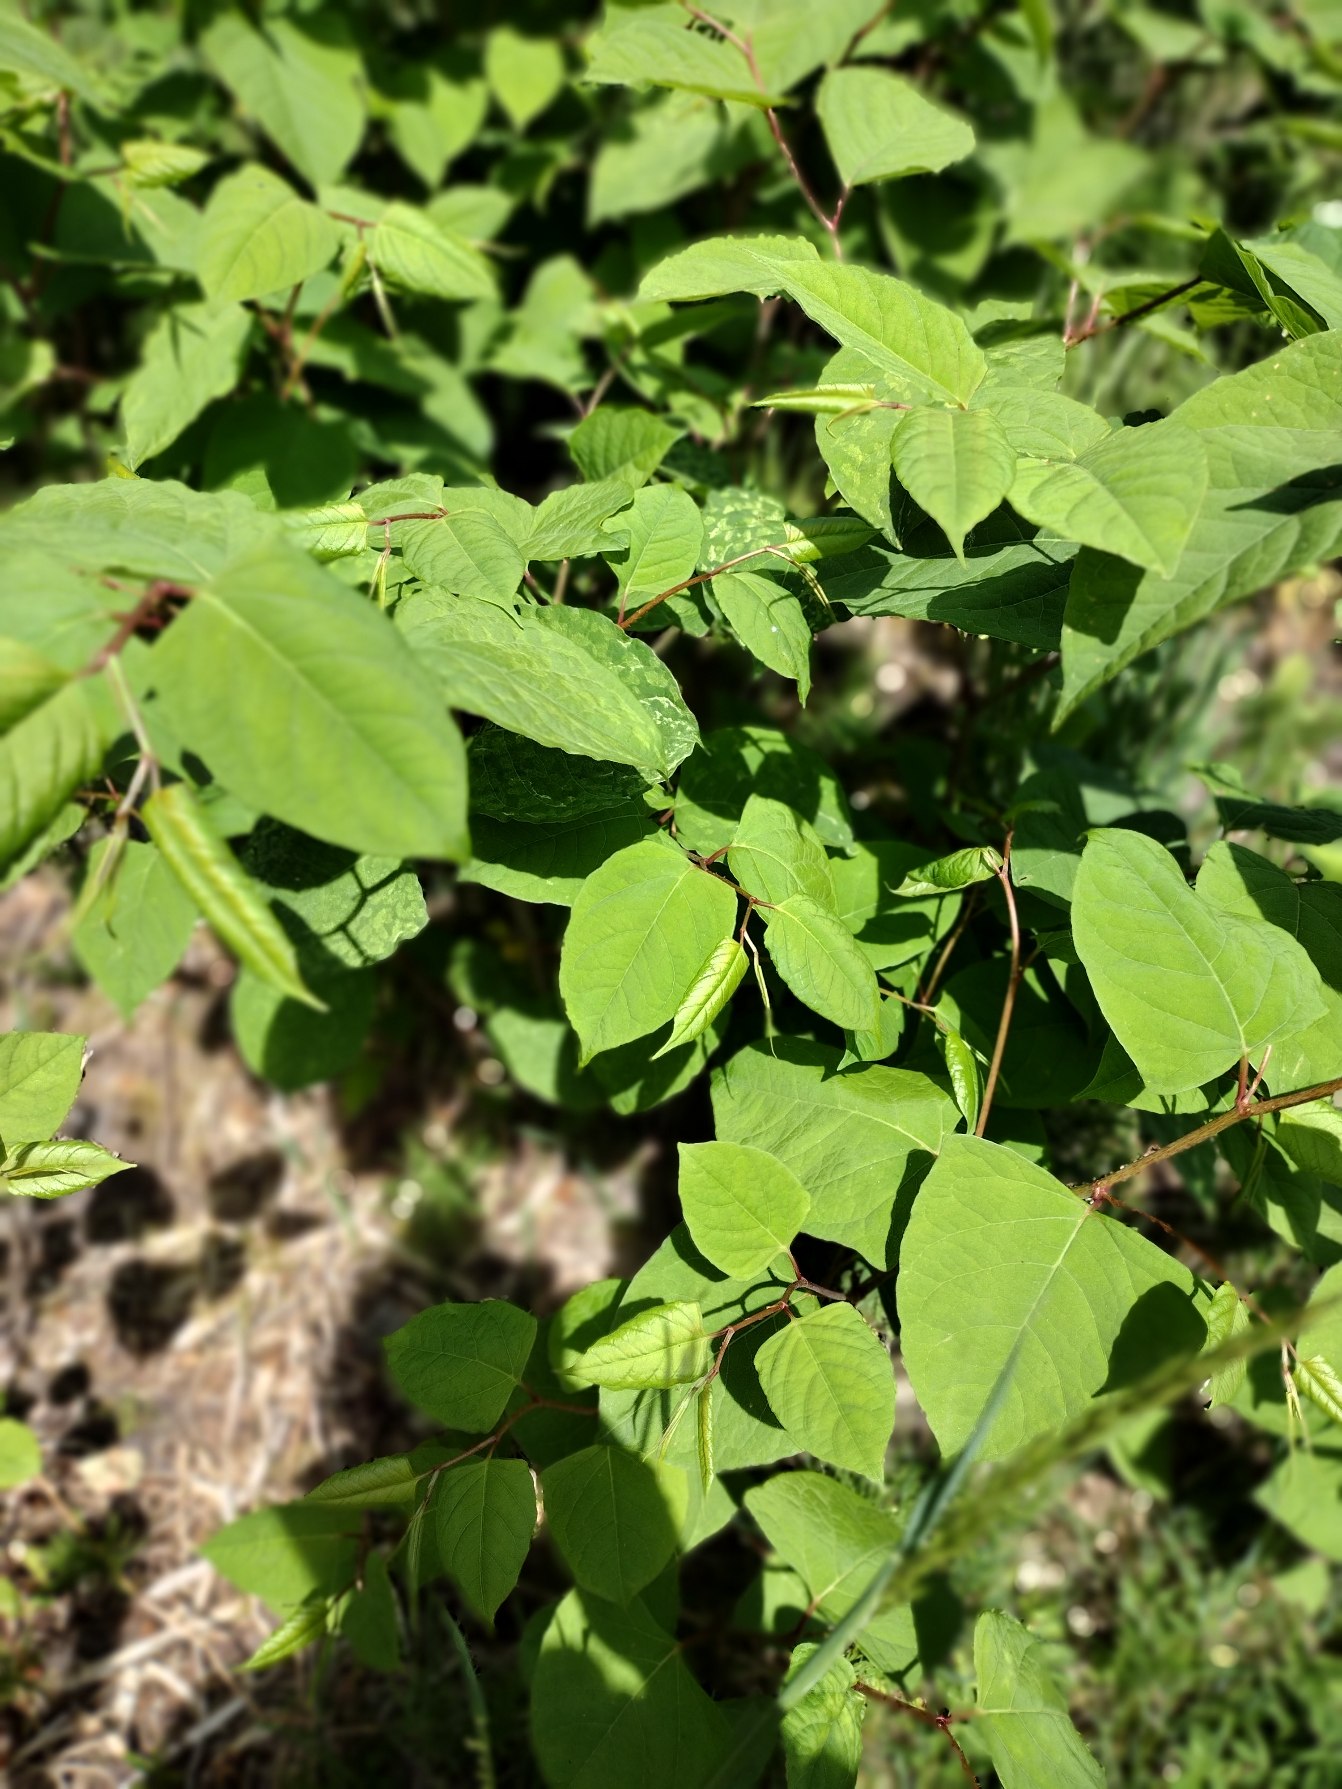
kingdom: Plantae
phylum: Tracheophyta
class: Magnoliopsida
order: Caryophyllales
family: Polygonaceae
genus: Reynoutria
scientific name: Reynoutria japonica
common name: Japan-pileurt
